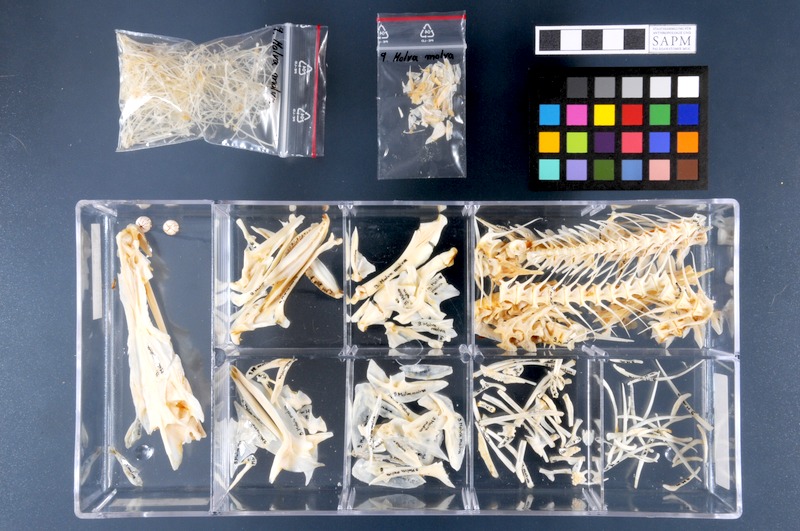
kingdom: Animalia
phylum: Chordata
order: Gadiformes
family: Lotidae
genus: Molva
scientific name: Molva molva
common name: Ling
